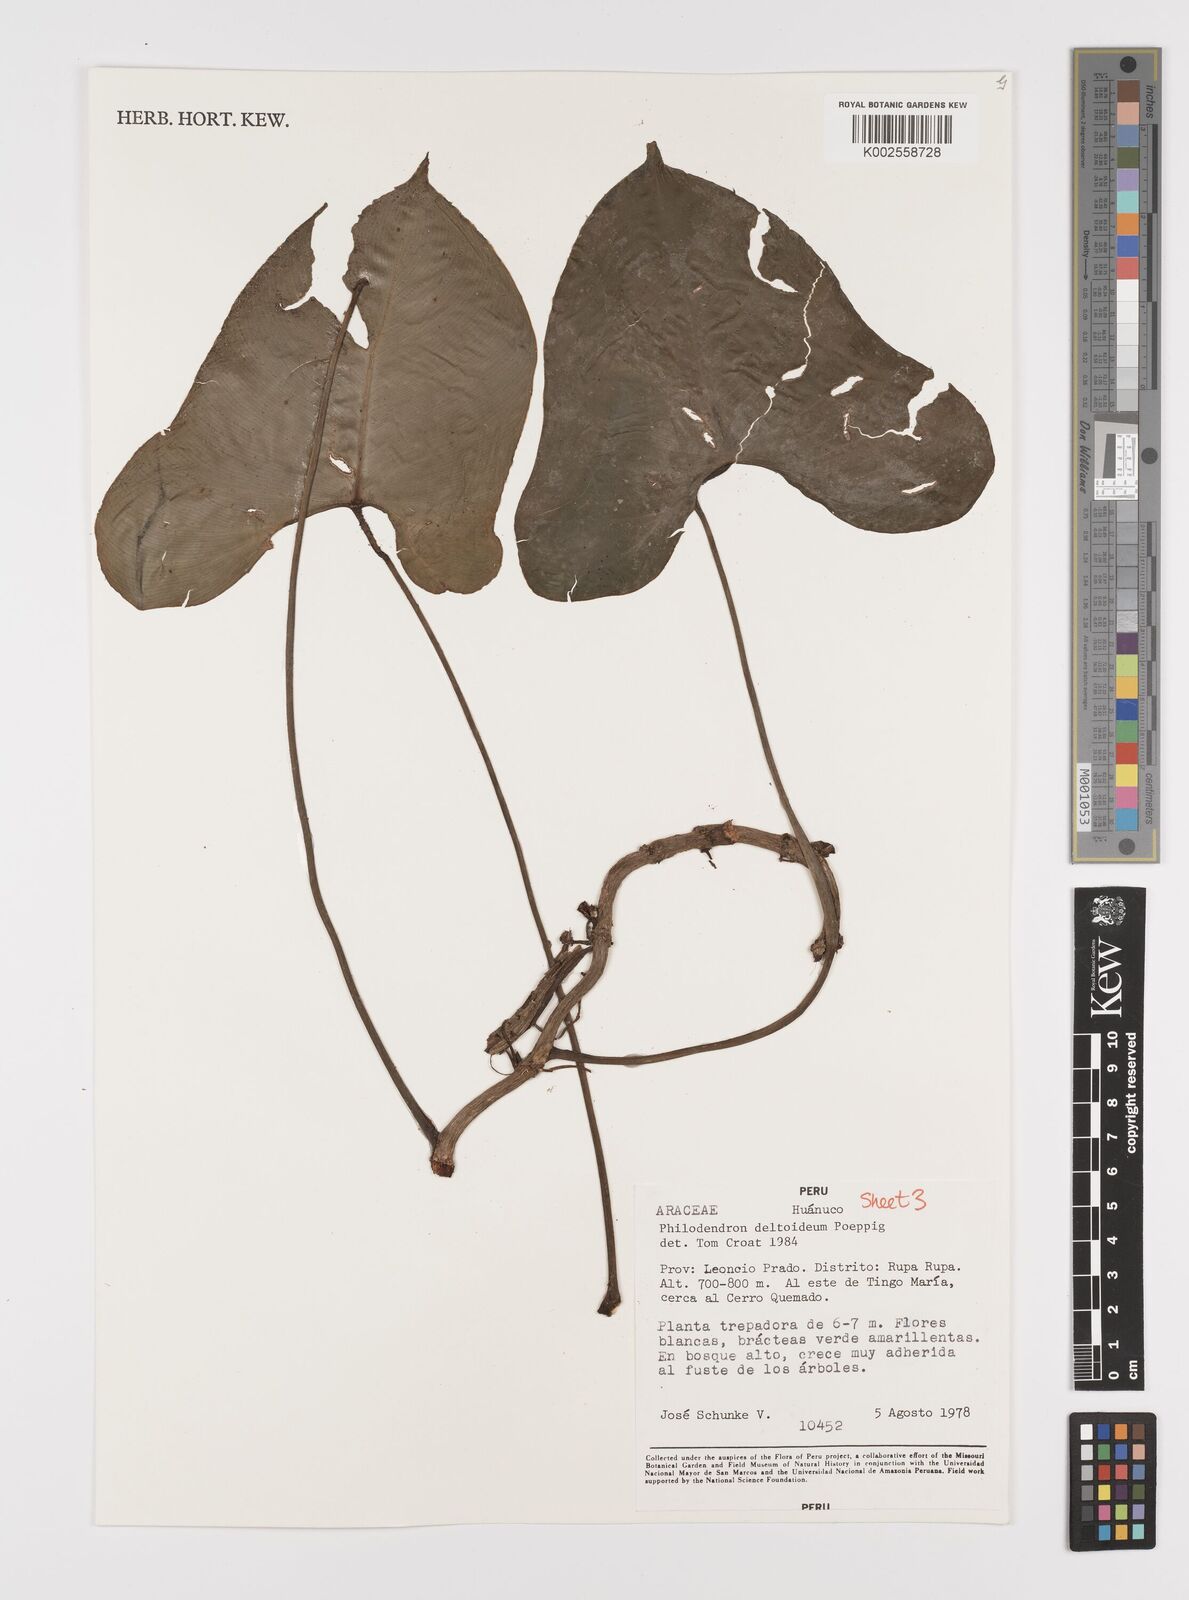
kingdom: Plantae
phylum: Tracheophyta
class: Liliopsida
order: Alismatales
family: Araceae
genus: Philodendron
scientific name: Philodendron deltoideum
